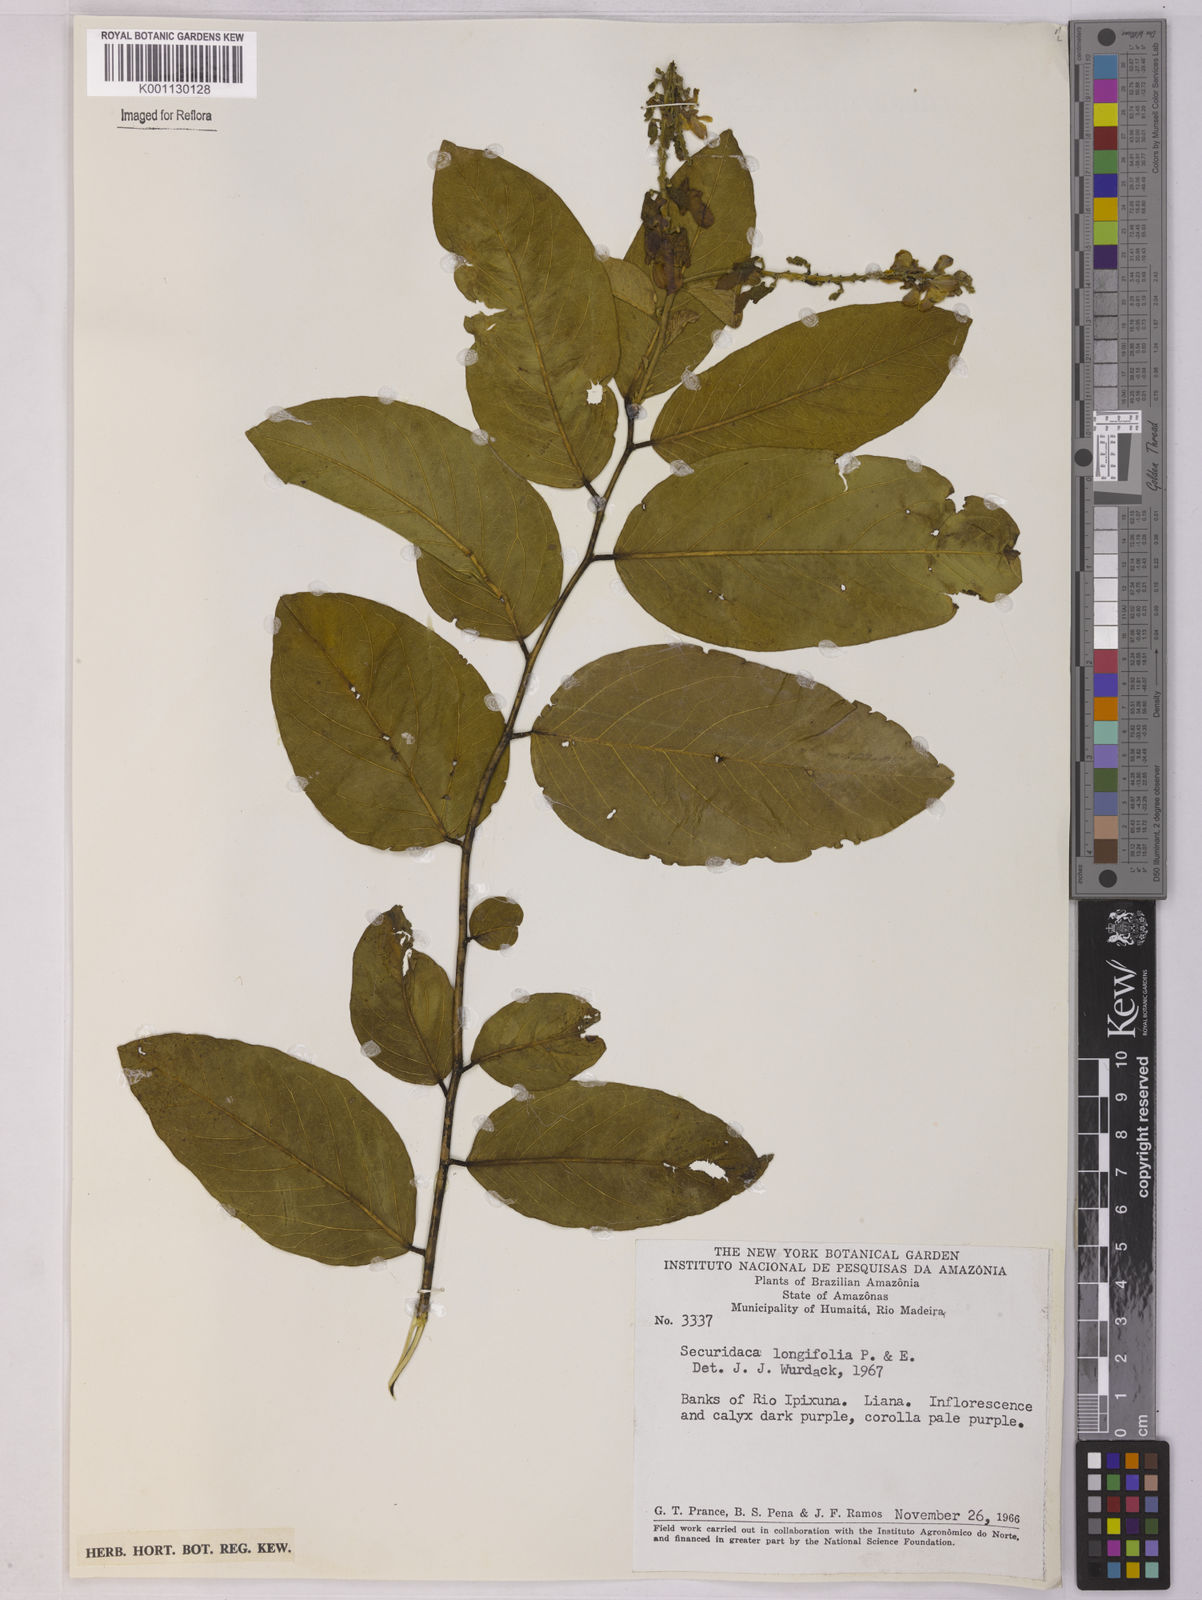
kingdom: Plantae
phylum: Tracheophyta
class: Magnoliopsida
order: Fabales
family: Polygalaceae
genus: Securidaca
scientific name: Securidaca longifolia
